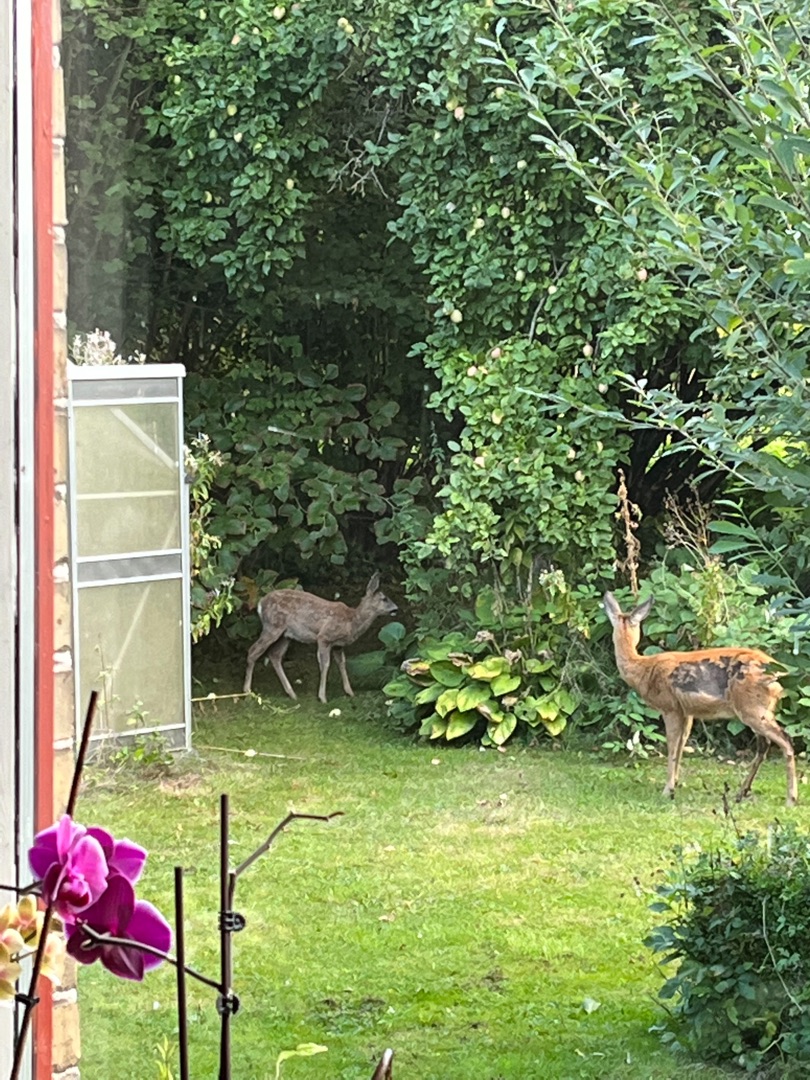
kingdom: Animalia
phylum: Chordata
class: Mammalia
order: Artiodactyla
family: Cervidae
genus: Capreolus
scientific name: Capreolus capreolus
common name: Rådyr
